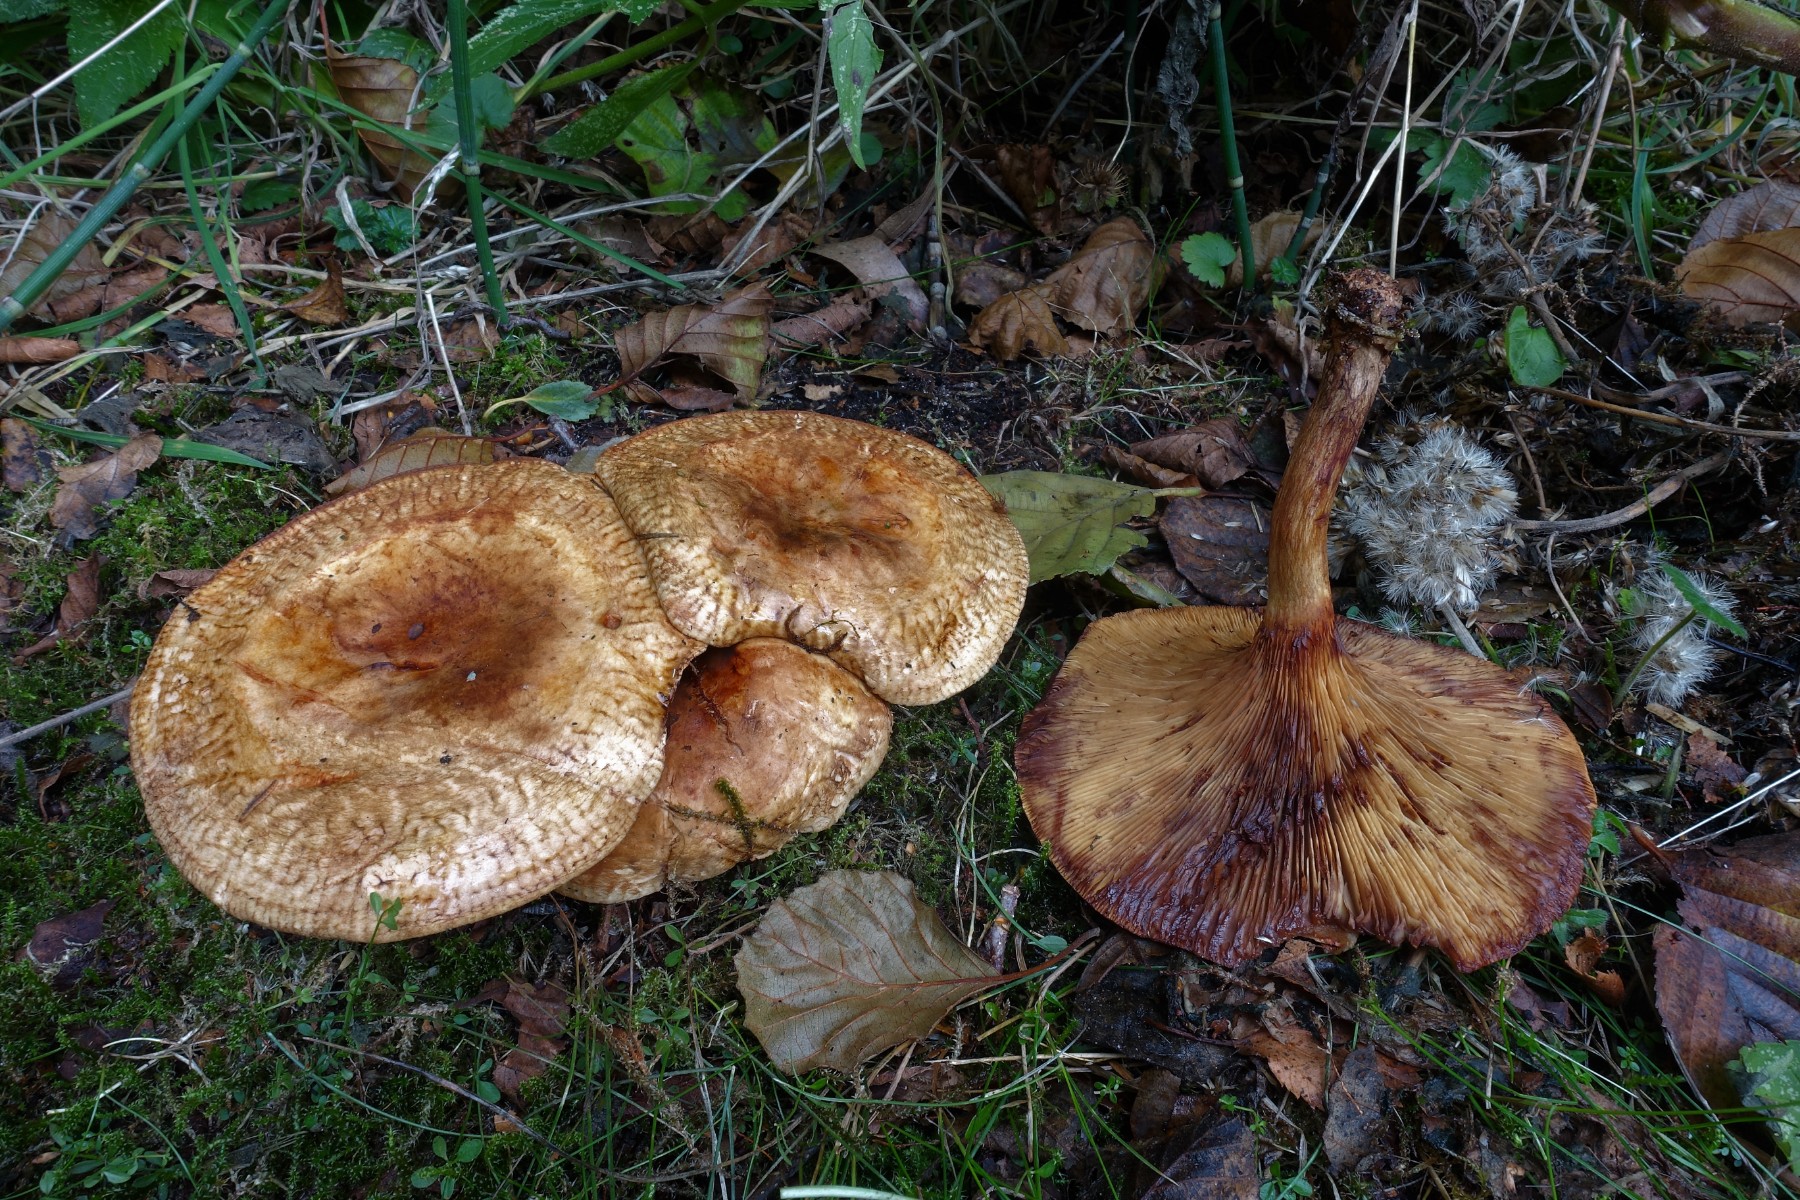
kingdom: Fungi
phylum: Basidiomycota
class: Agaricomycetes
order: Boletales
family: Paxillaceae
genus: Paxillus
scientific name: Paxillus rubicundulus
